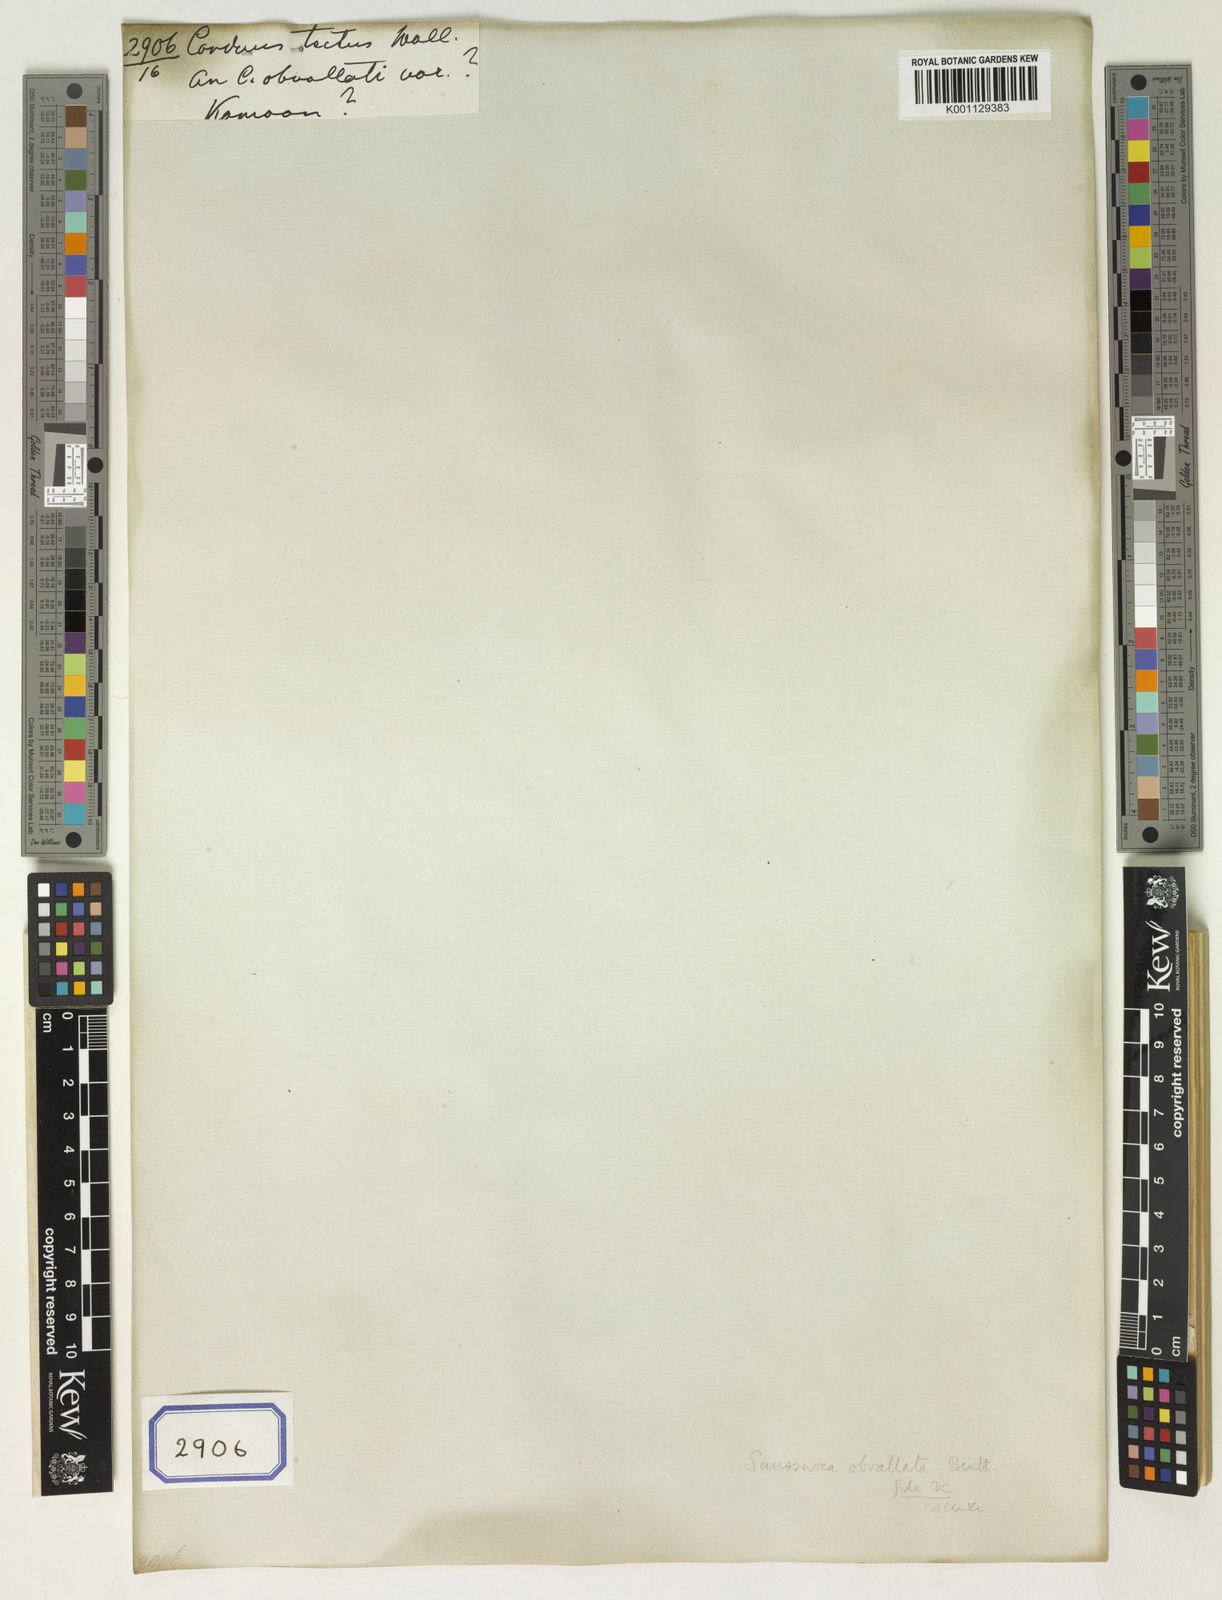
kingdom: Plantae
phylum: Tracheophyta
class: Magnoliopsida
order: Asterales
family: Asteraceae
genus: Saussurea
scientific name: Saussurea obvallata
